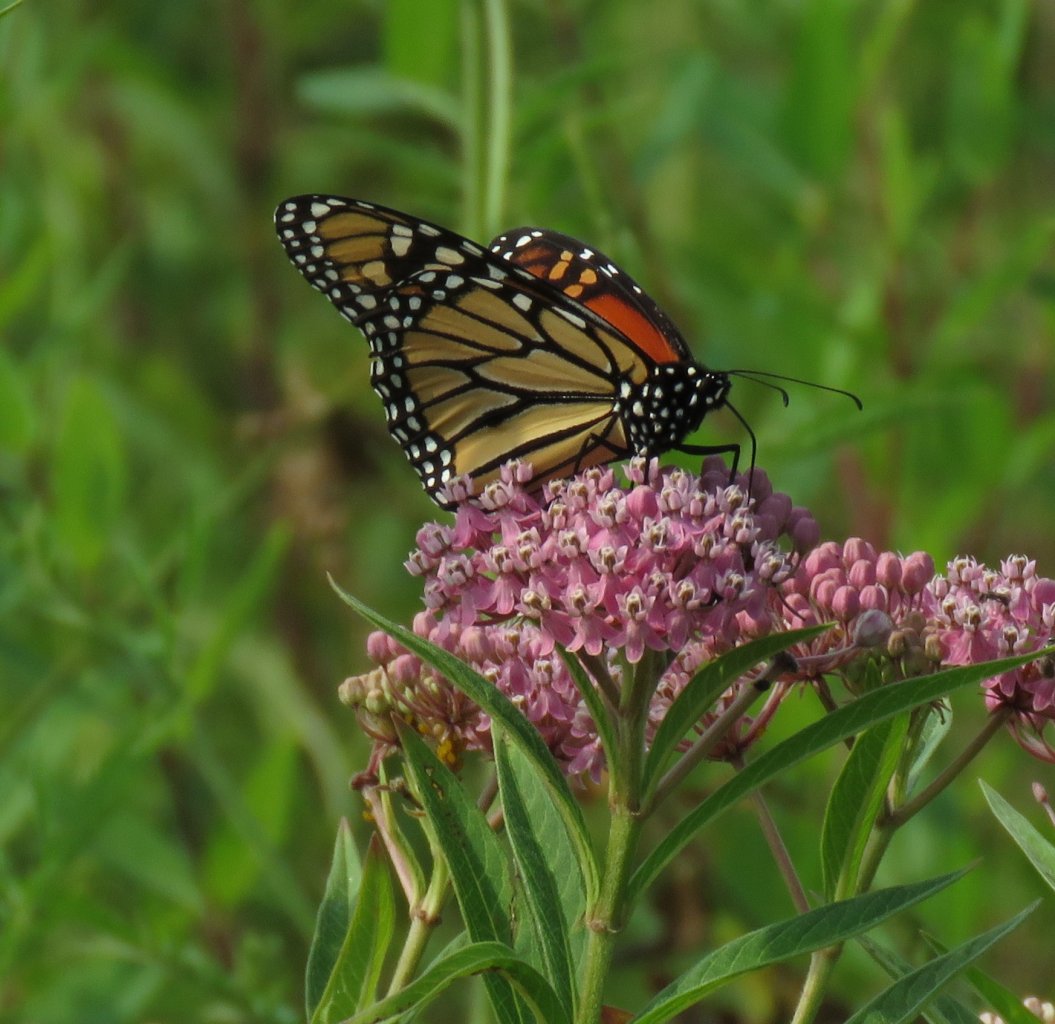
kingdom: Animalia
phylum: Arthropoda
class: Insecta
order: Lepidoptera
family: Nymphalidae
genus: Danaus
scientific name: Danaus plexippus
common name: Monarch
